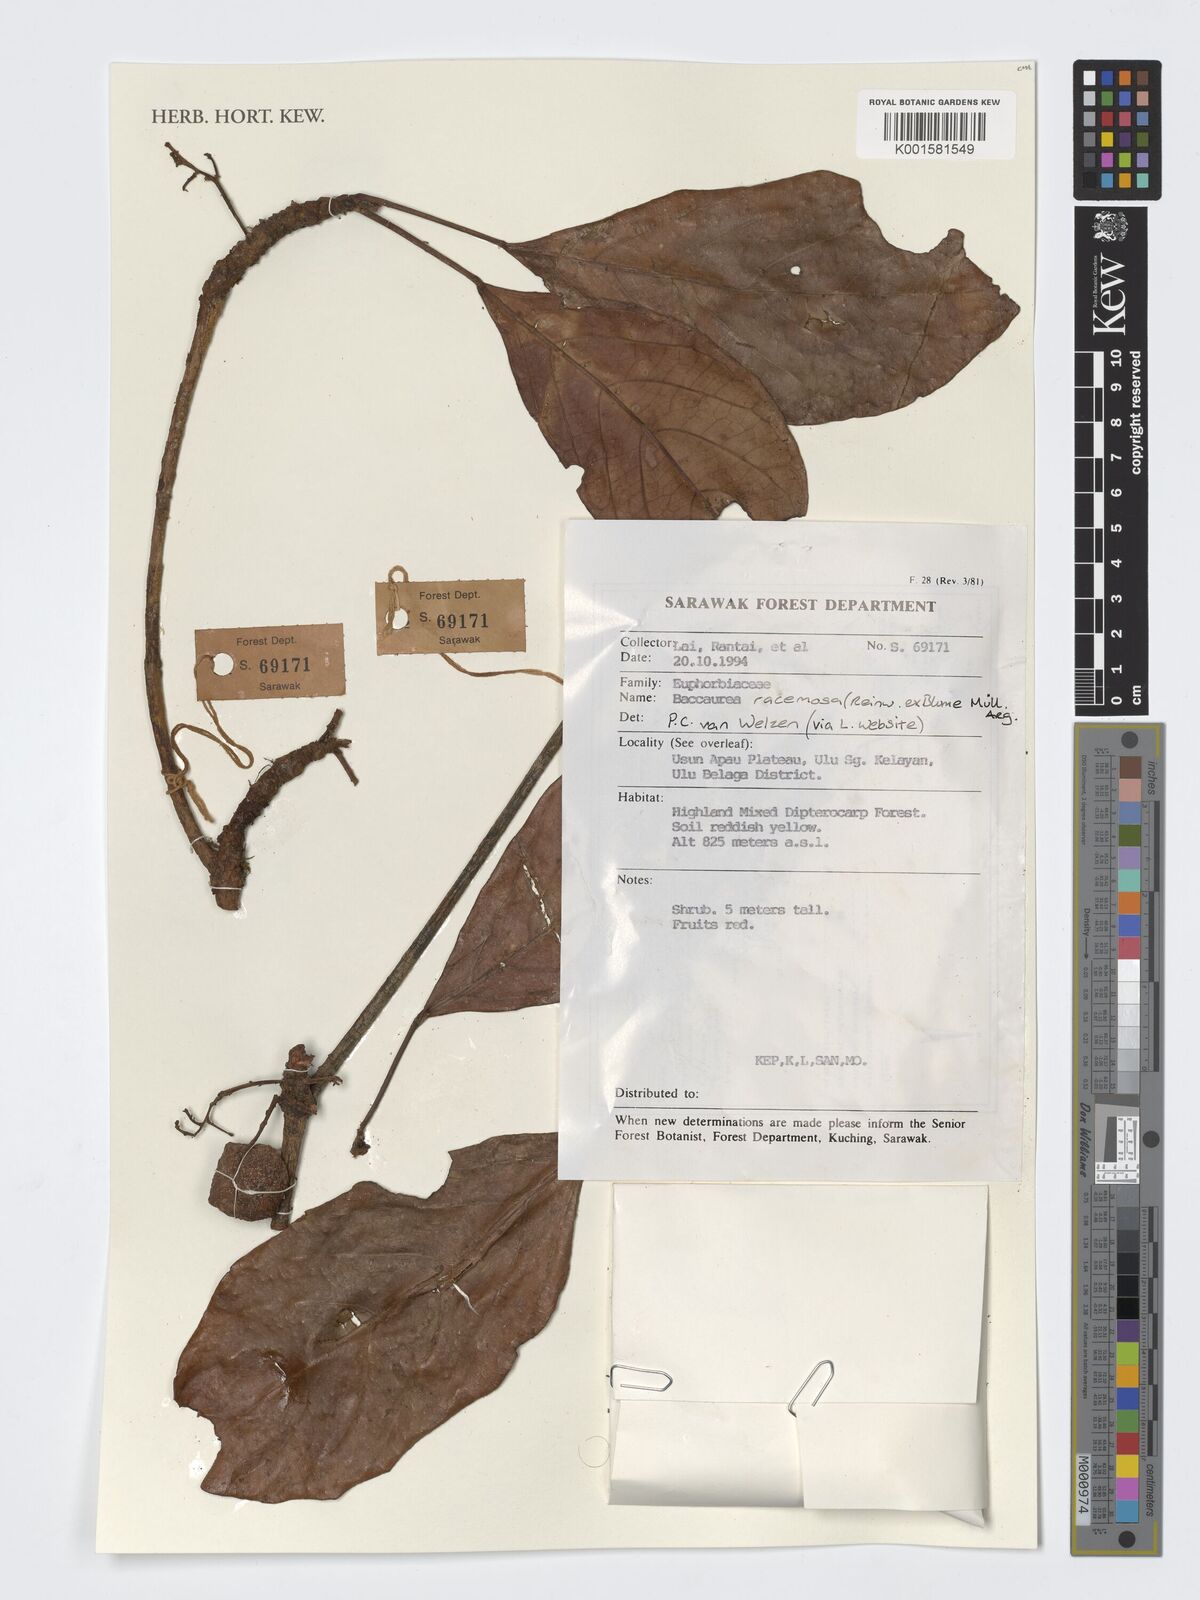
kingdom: Plantae
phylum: Tracheophyta
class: Magnoliopsida
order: Malpighiales
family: Phyllanthaceae
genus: Baccaurea
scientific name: Baccaurea racemosa
